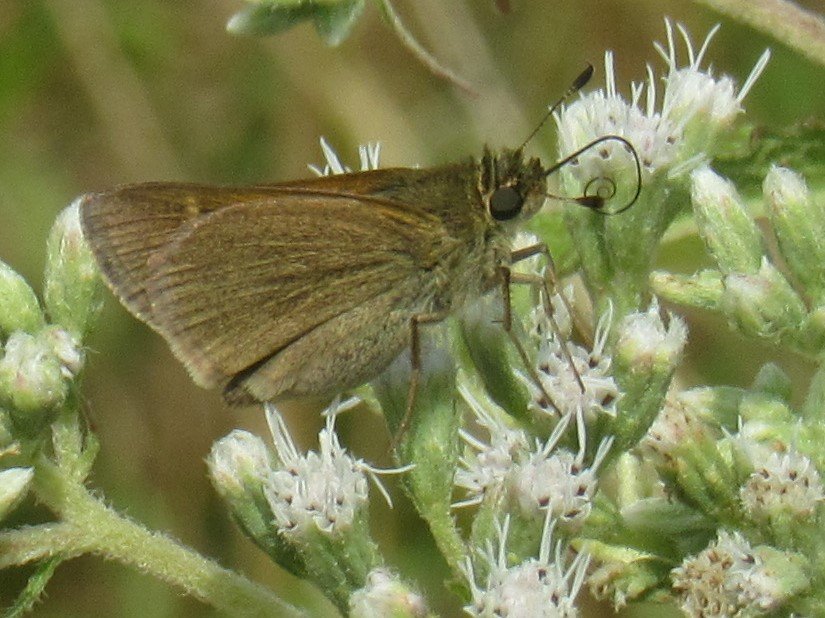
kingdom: Animalia
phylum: Arthropoda
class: Insecta
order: Lepidoptera
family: Hesperiidae
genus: Euphyes
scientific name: Euphyes vestris
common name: Dun Skipper
